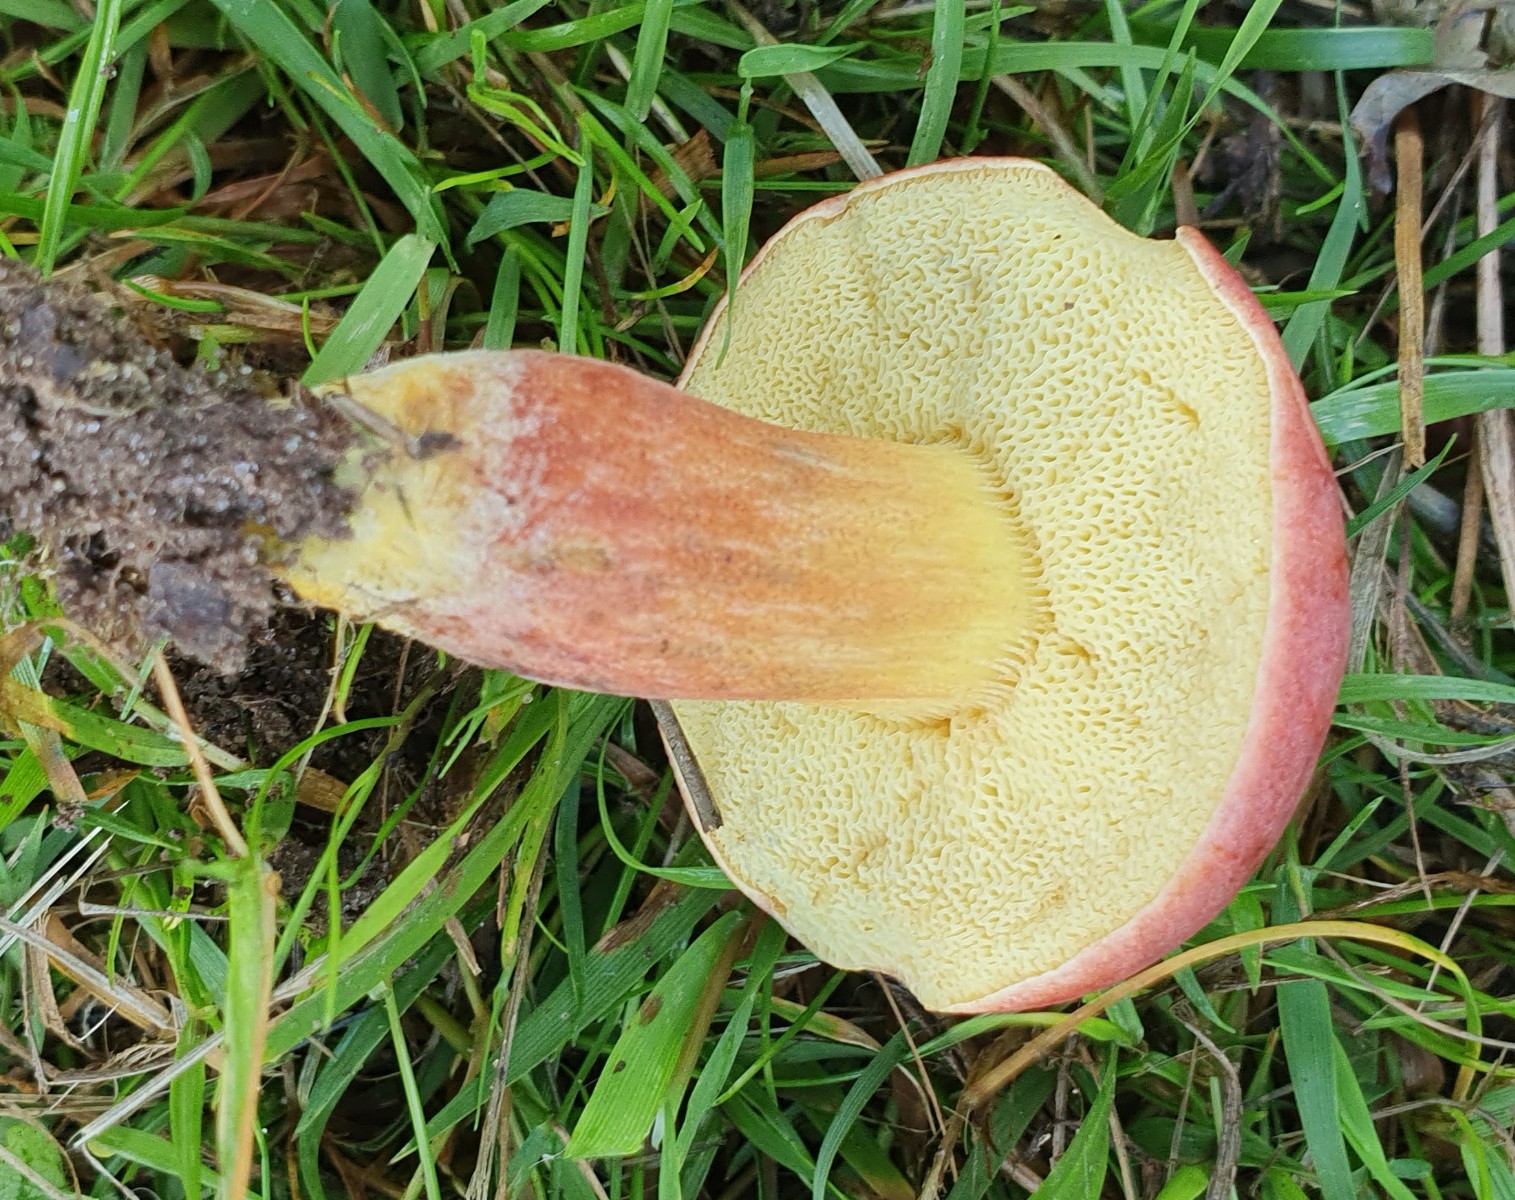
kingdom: Fungi
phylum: Basidiomycota
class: Agaricomycetes
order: Boletales
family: Boletaceae
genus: Hortiboletus
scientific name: Hortiboletus rubellus
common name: blodrød rørhat
